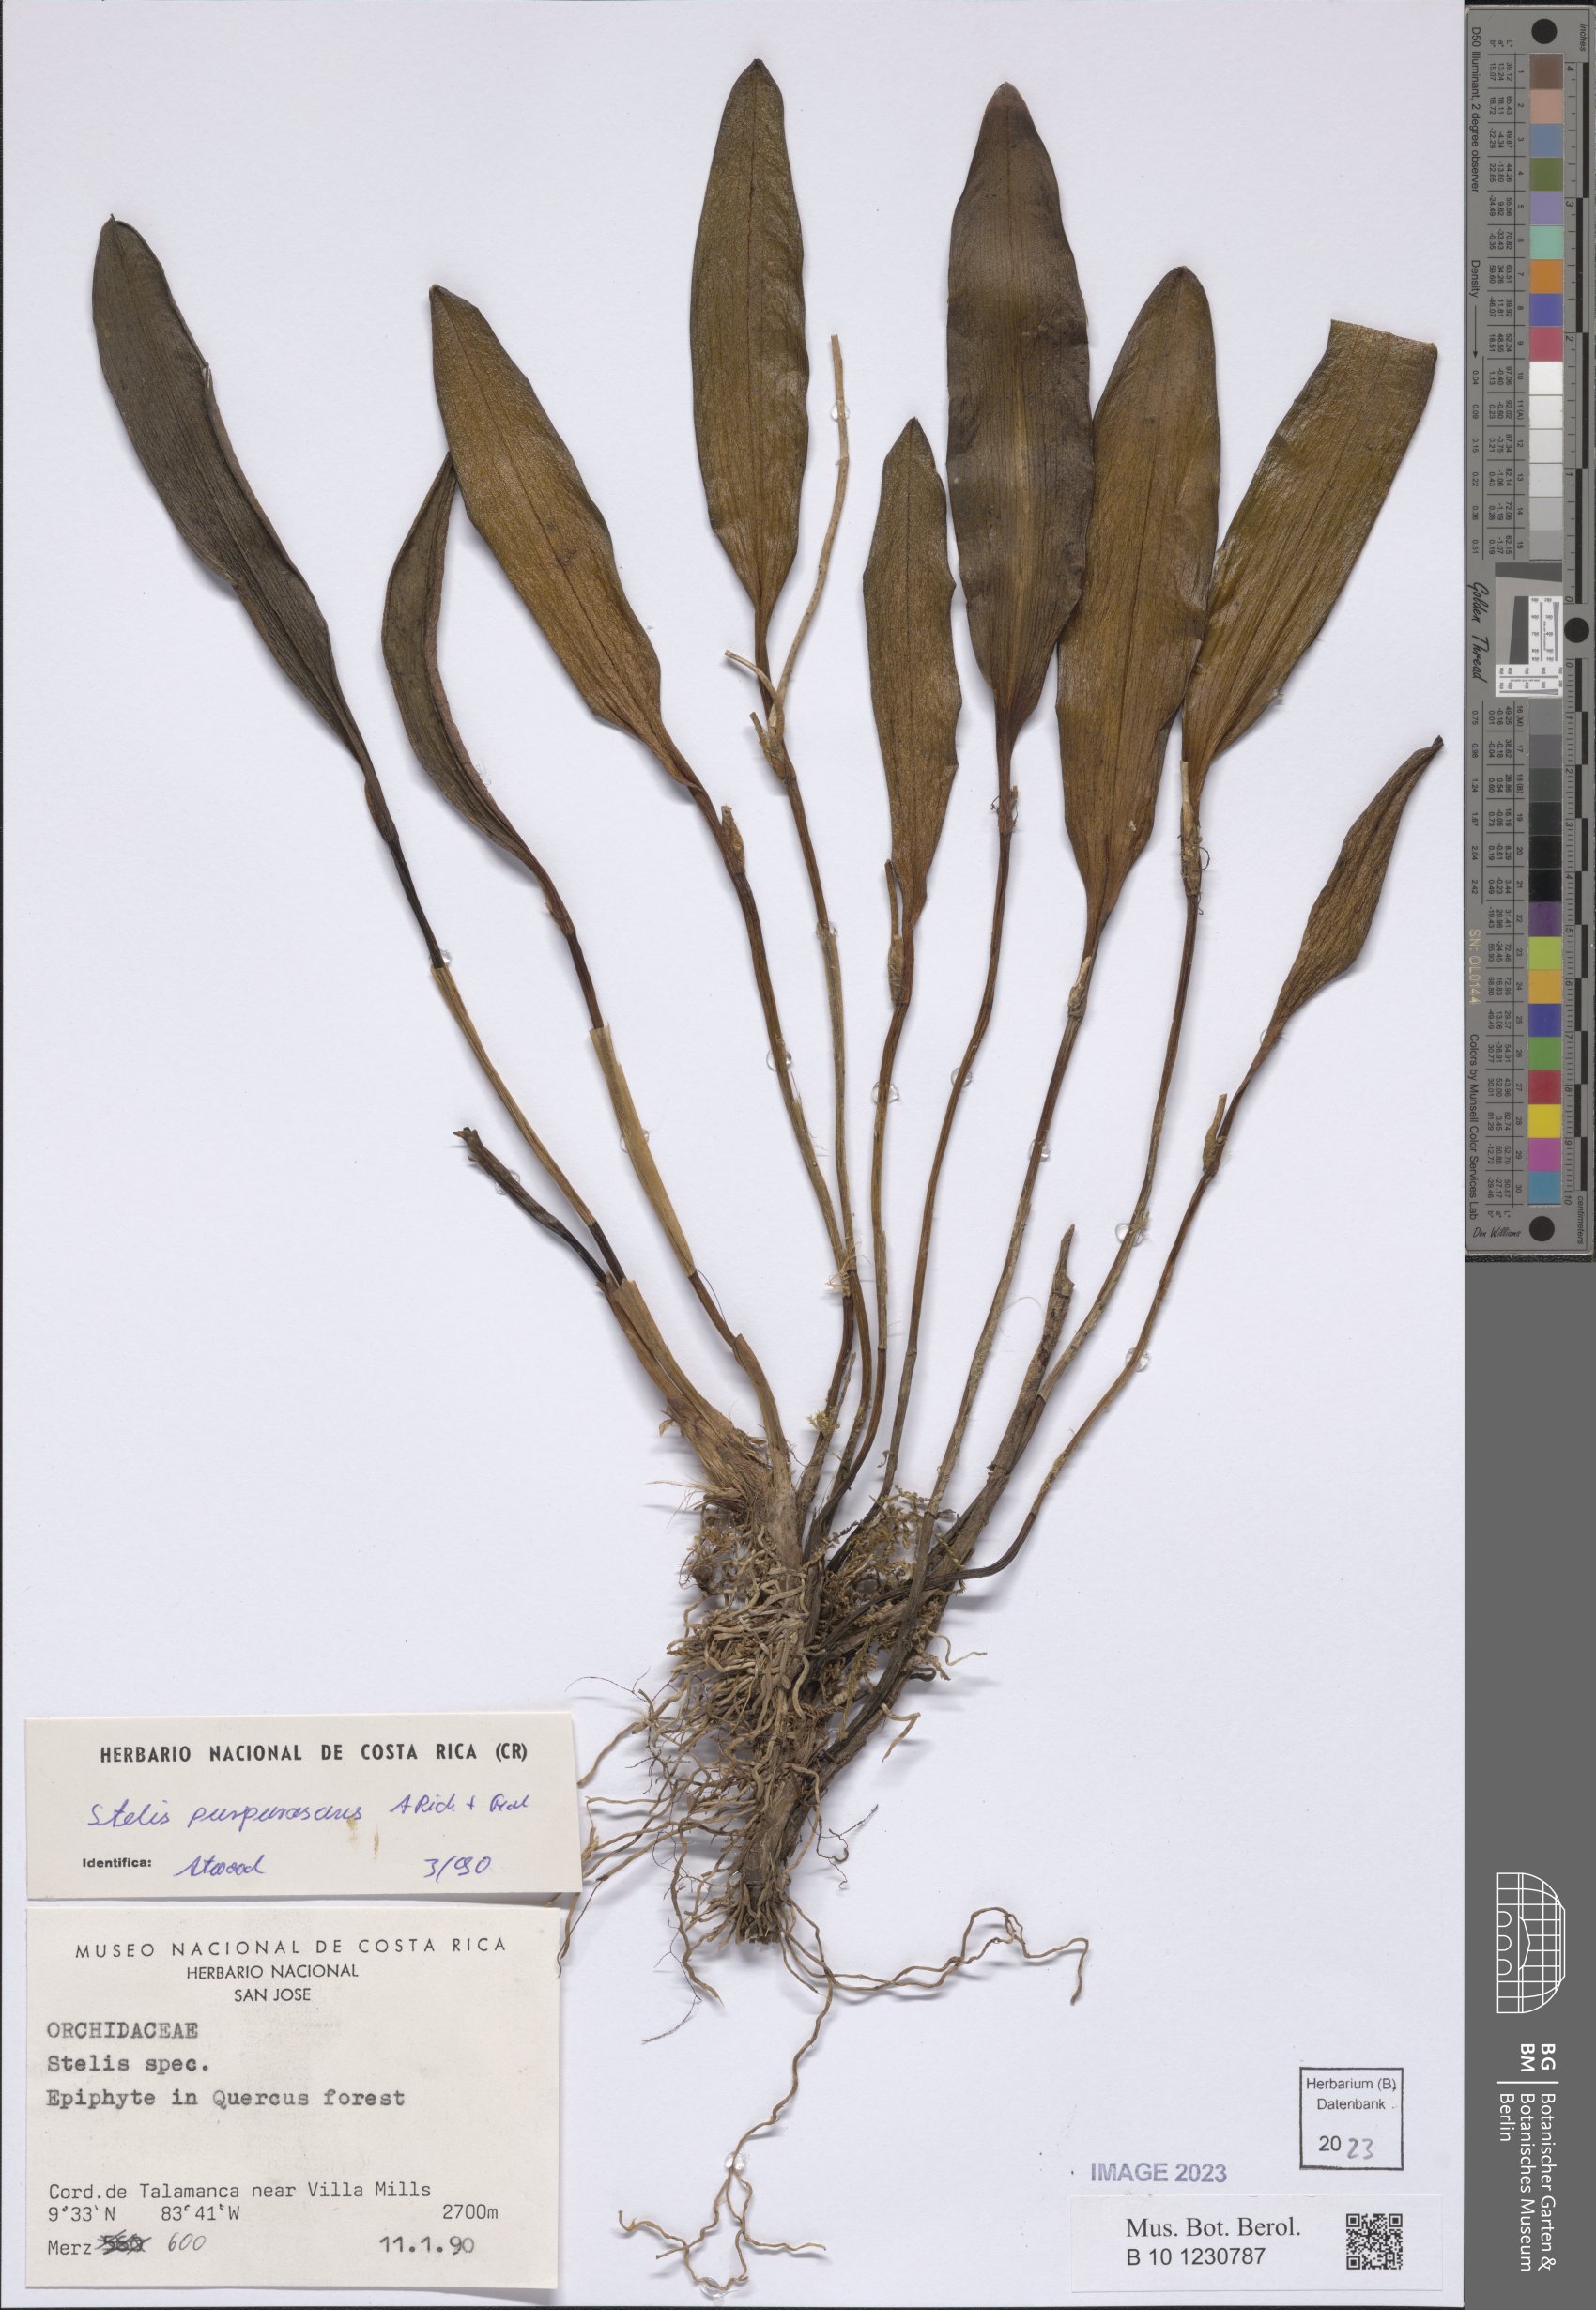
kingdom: Plantae
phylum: Tracheophyta
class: Liliopsida
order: Asparagales
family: Orchidaceae
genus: Stelis
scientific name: Stelis purpurascens
